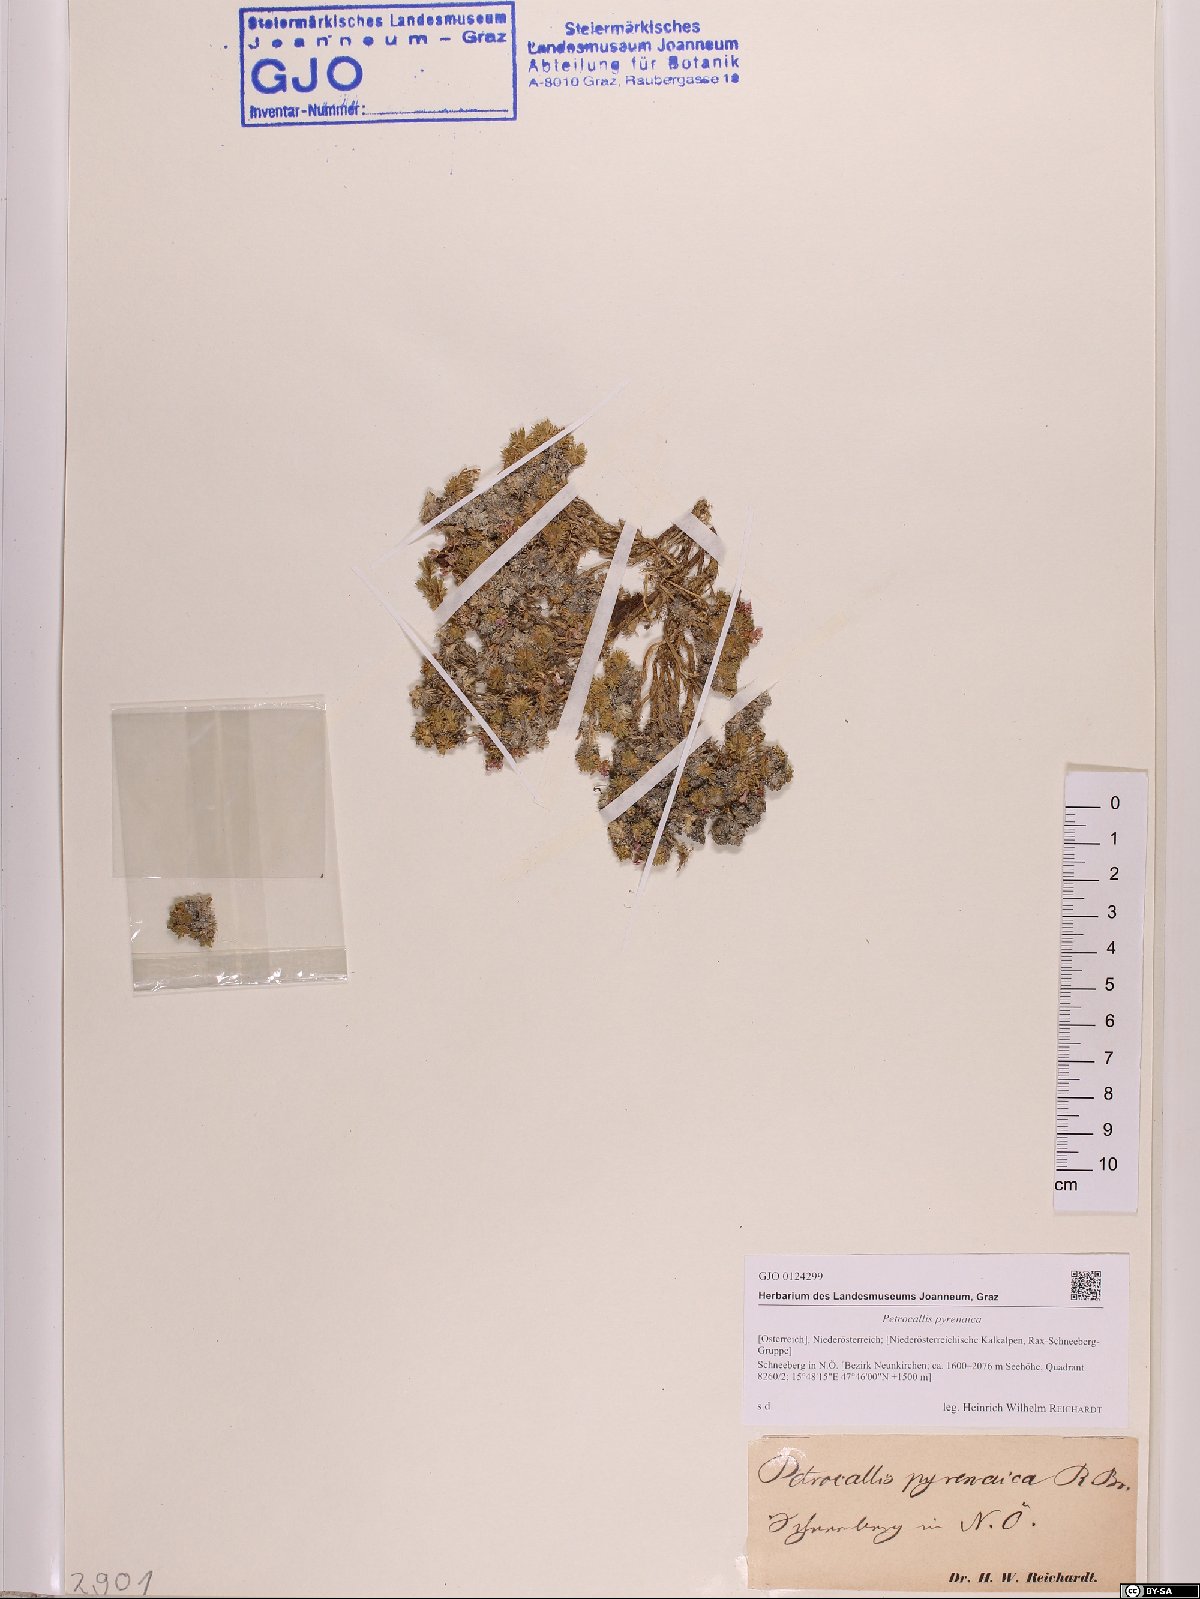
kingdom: Plantae
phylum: Tracheophyta
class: Magnoliopsida
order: Brassicales
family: Brassicaceae
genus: Petrocallis
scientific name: Petrocallis pyrenaica
